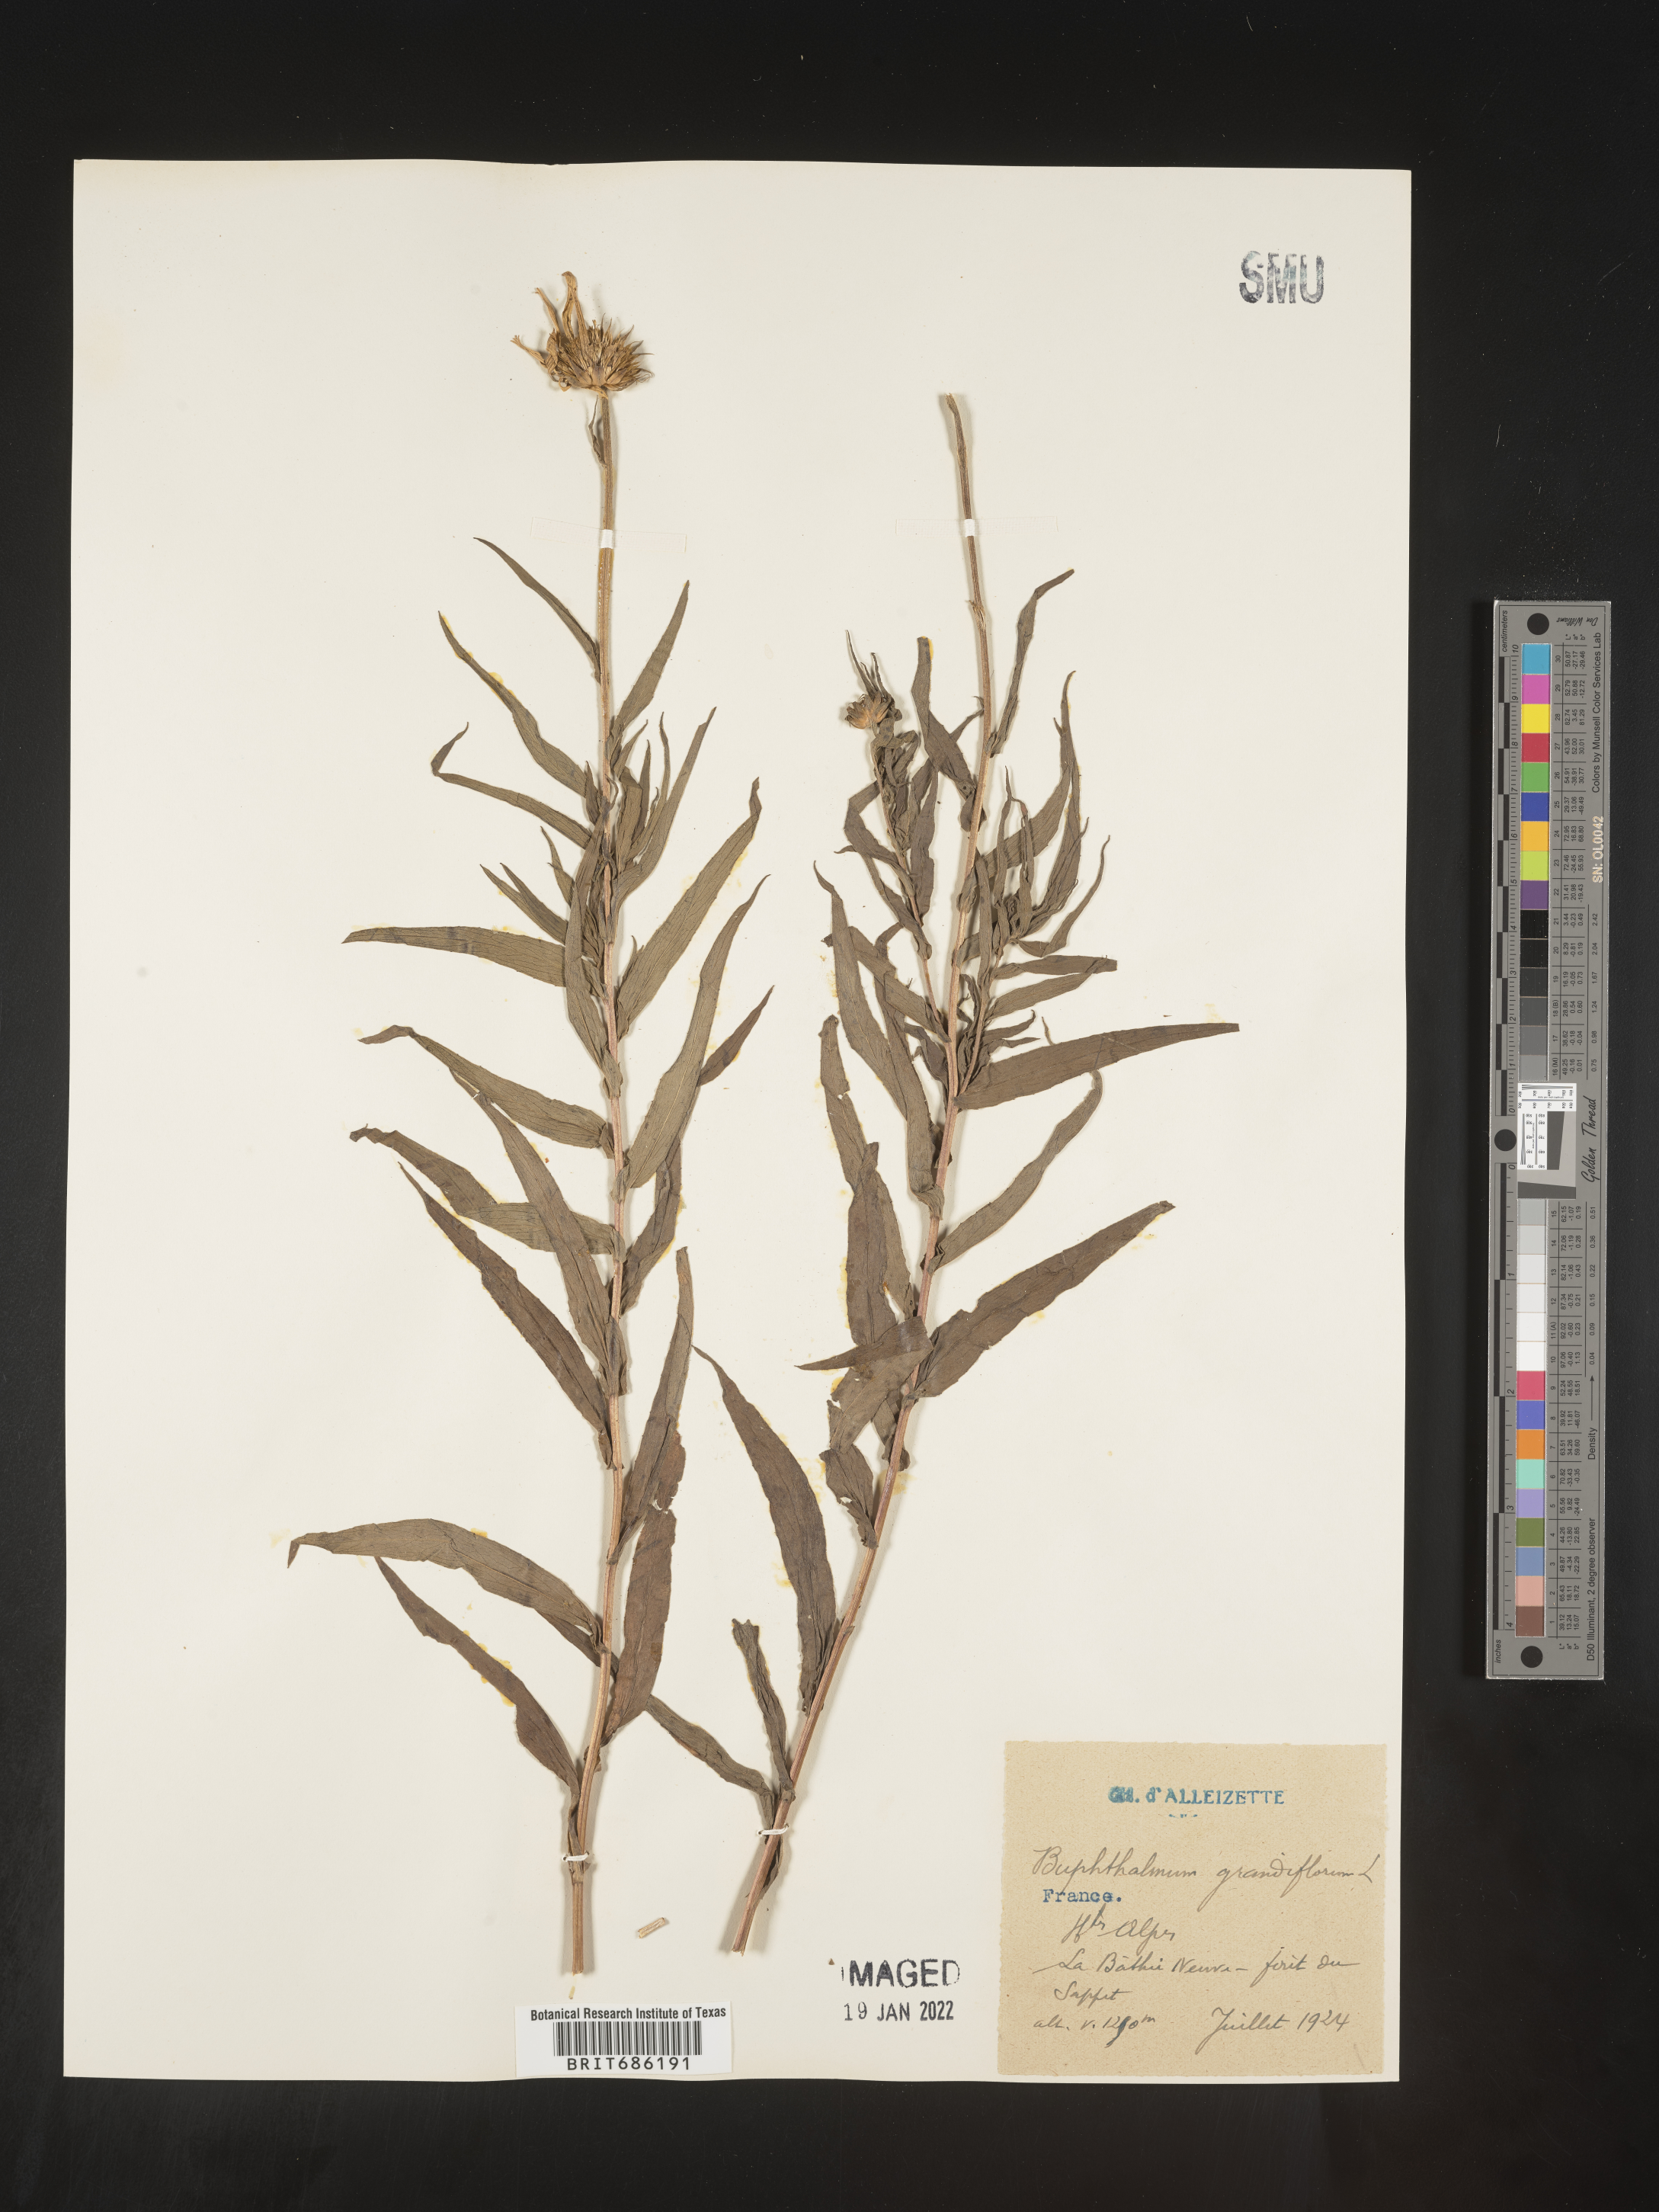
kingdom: Plantae
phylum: Tracheophyta
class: Magnoliopsida
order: Asterales
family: Asteraceae
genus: Buphthalmum
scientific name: Buphthalmum
